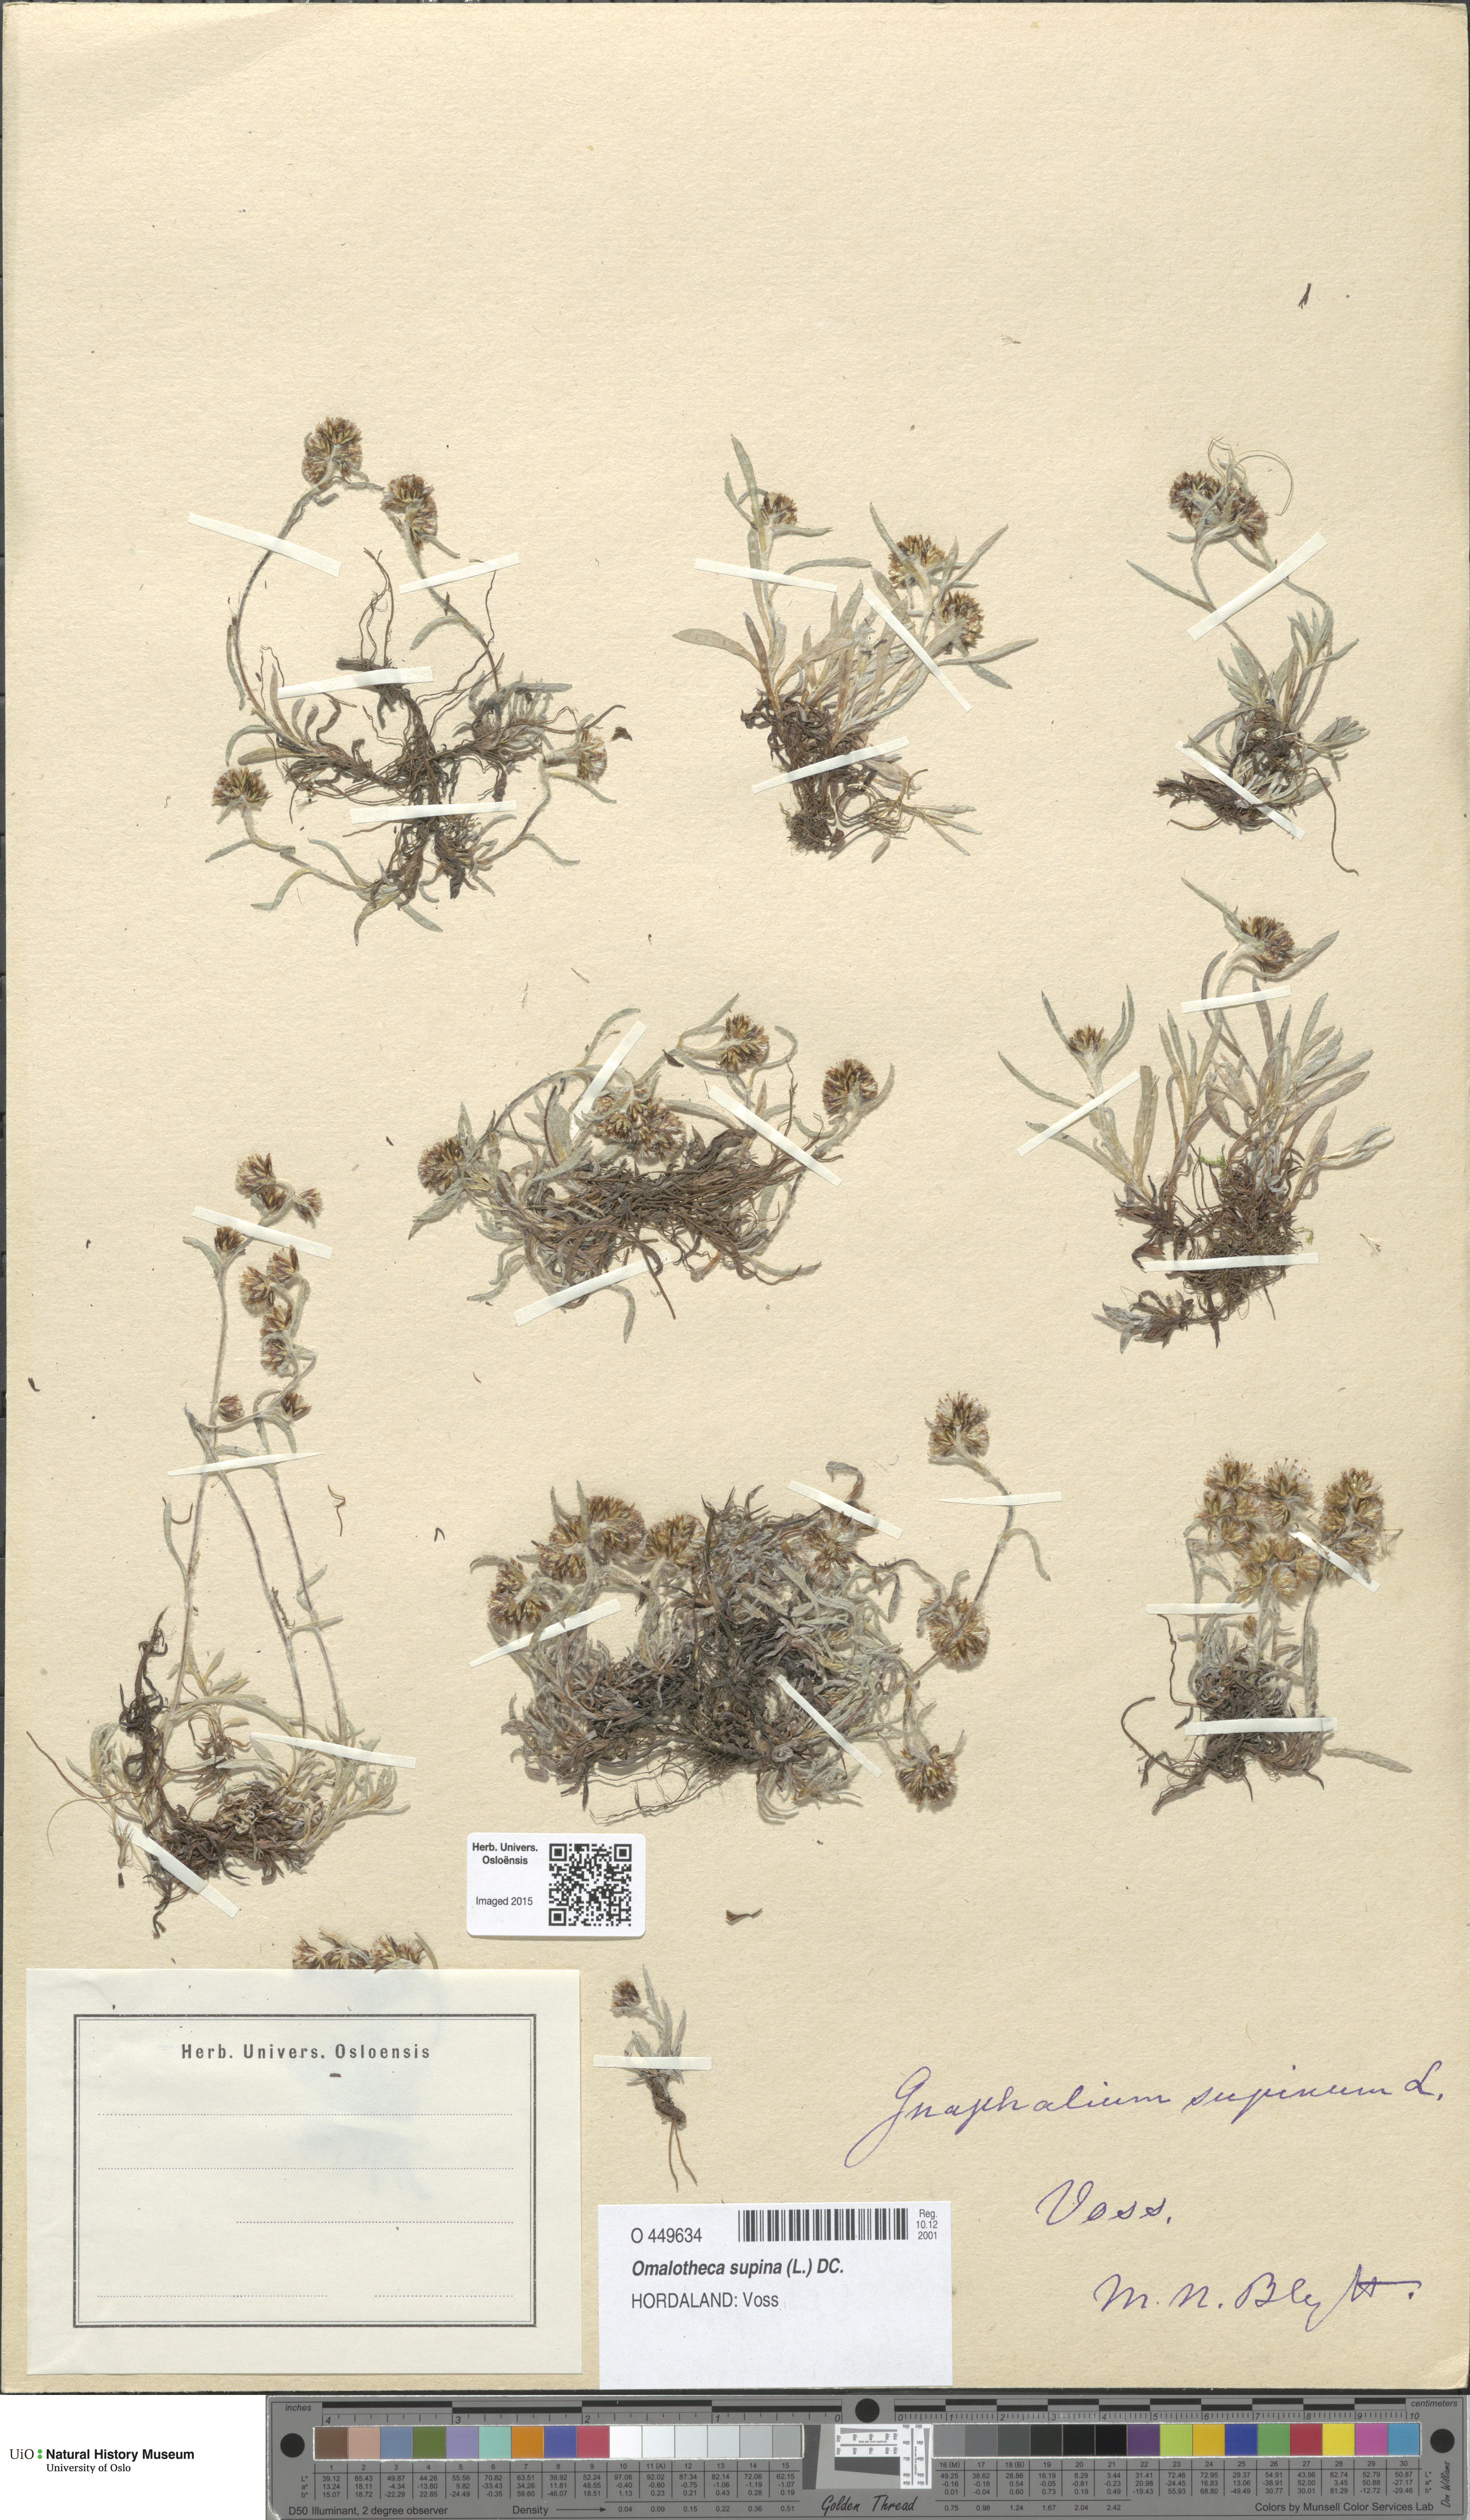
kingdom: Plantae
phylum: Tracheophyta
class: Magnoliopsida
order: Asterales
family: Asteraceae
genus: Omalotheca
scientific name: Omalotheca supina
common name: Alpine arctic-cudweed
